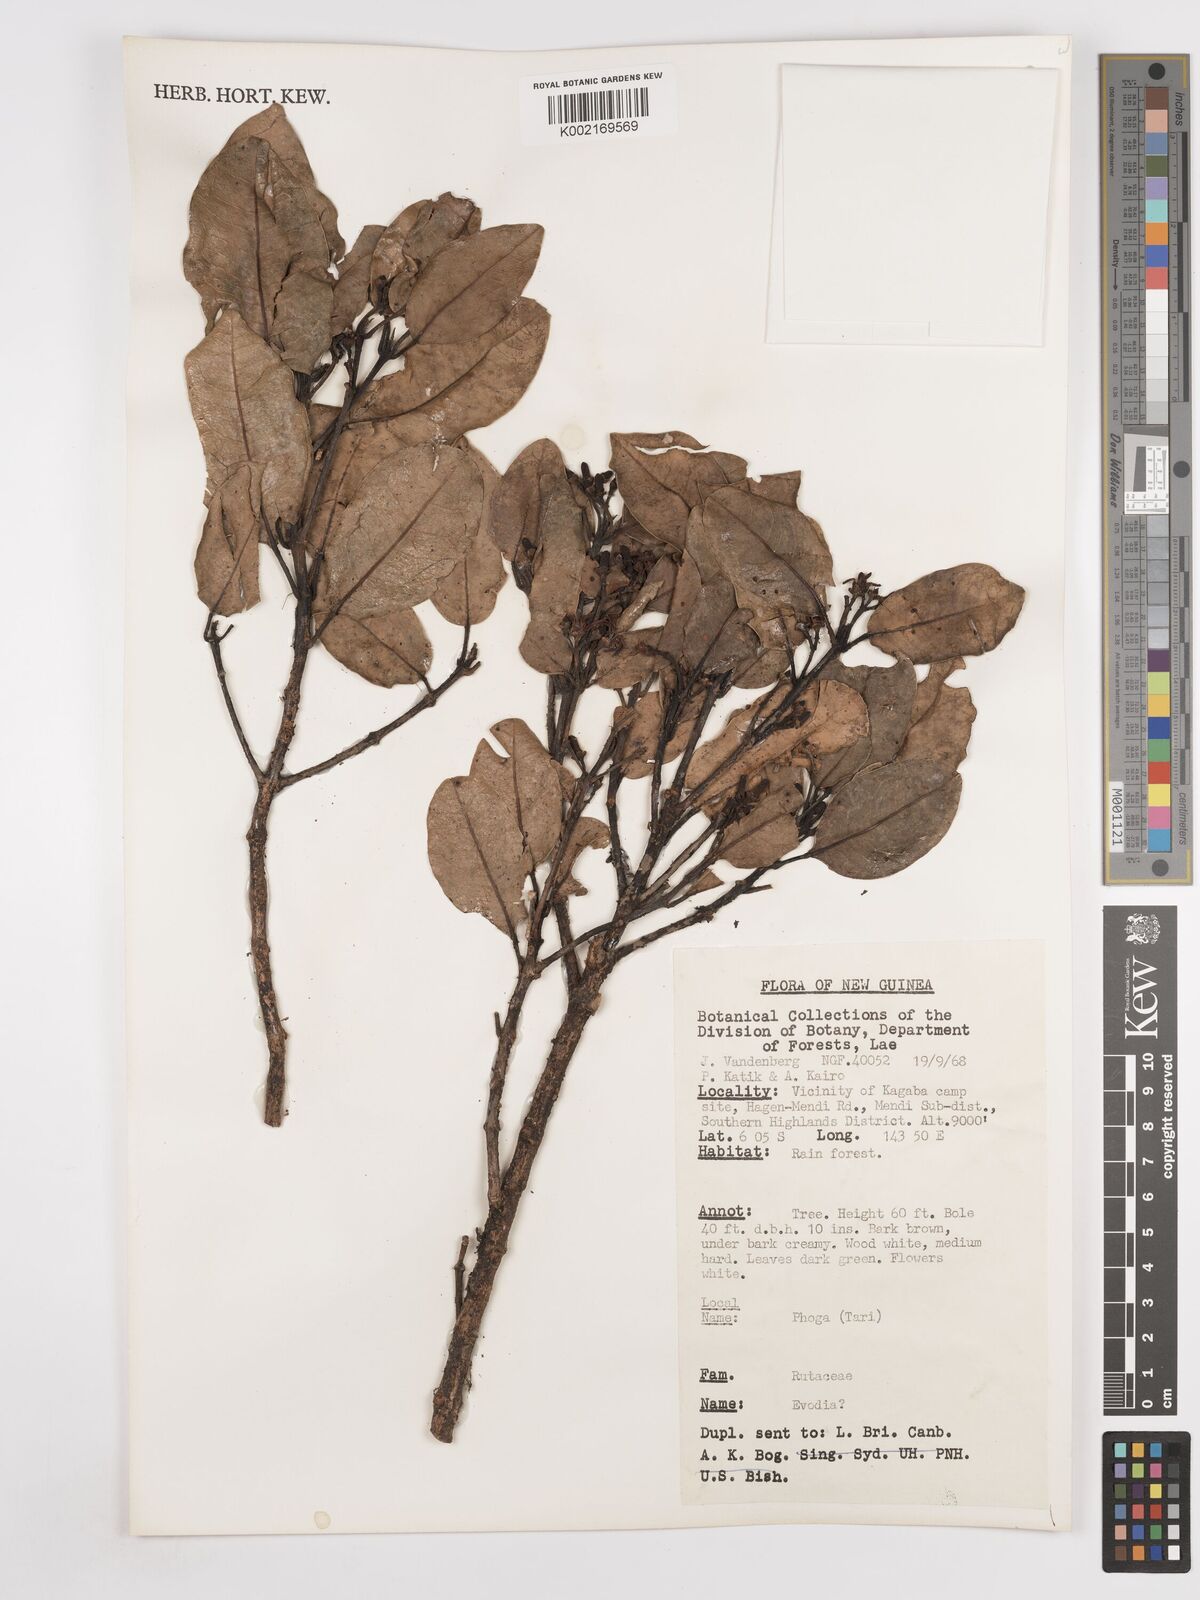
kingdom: Plantae
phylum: Tracheophyta
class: Magnoliopsida
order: Sapindales
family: Rutaceae
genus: Euodia
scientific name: Euodia
